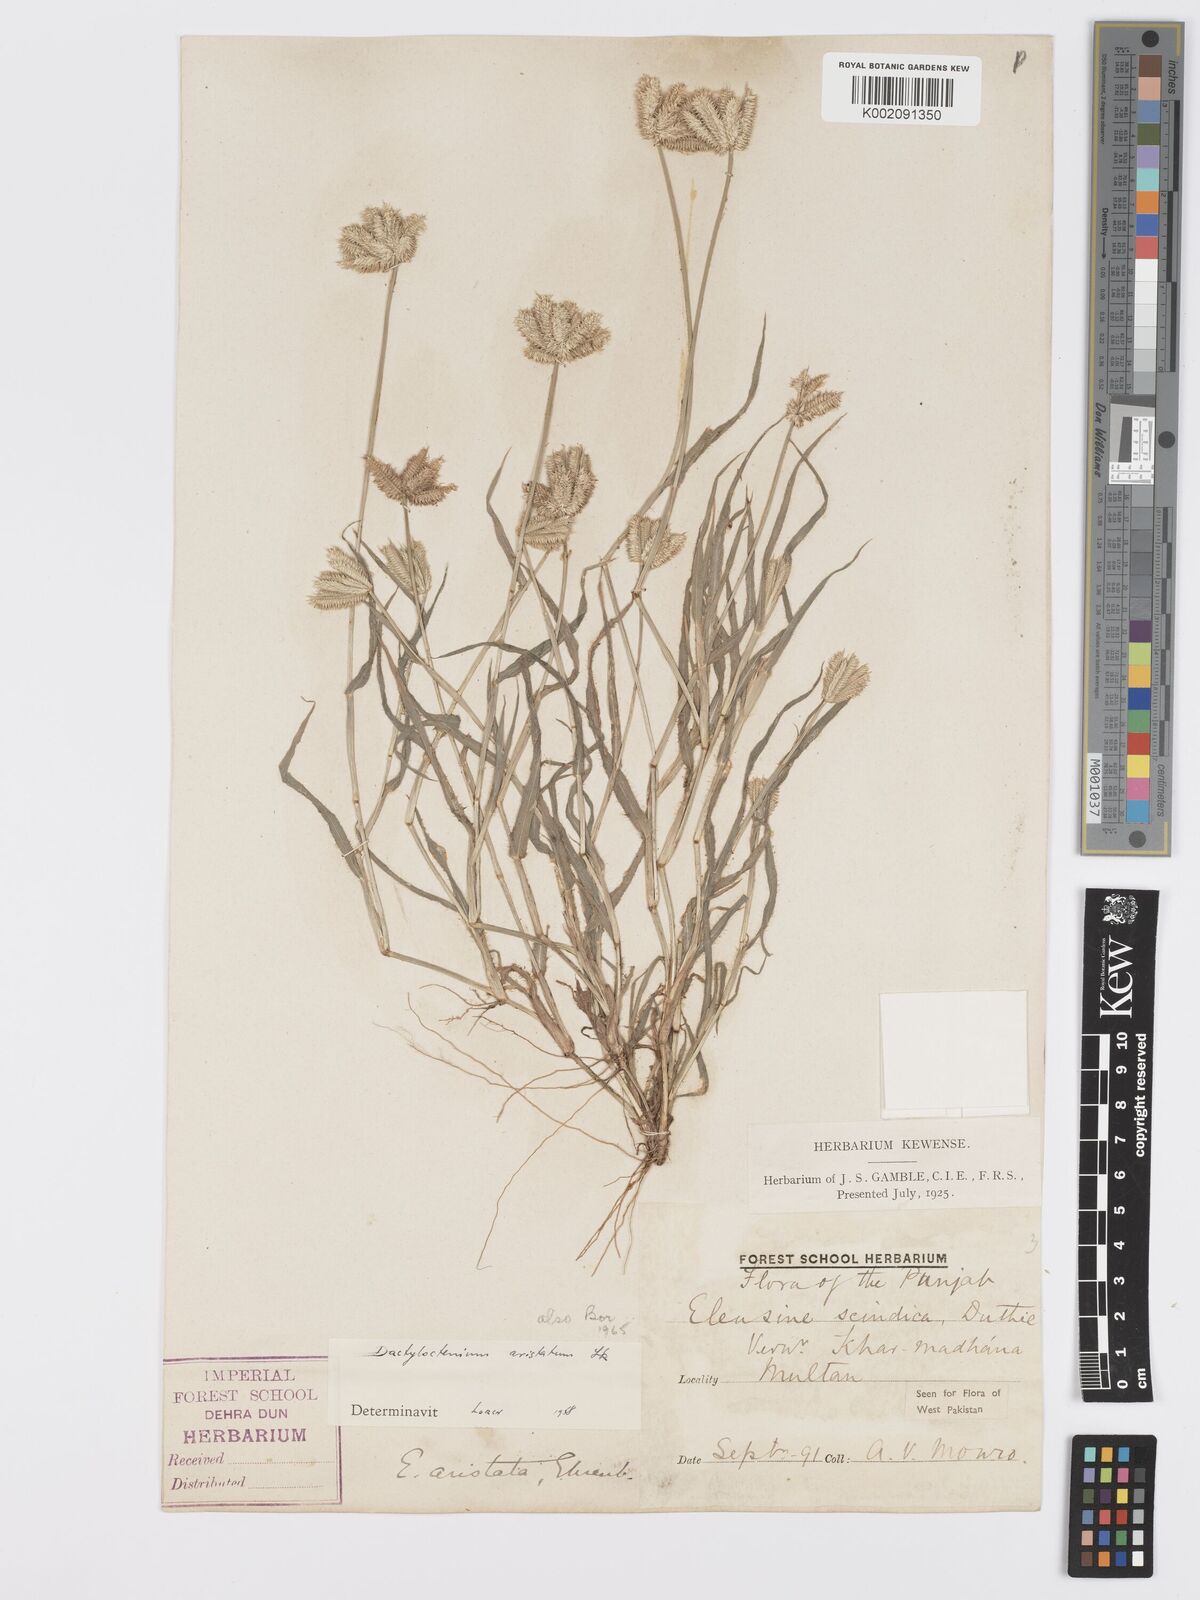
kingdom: Plantae
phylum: Tracheophyta
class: Liliopsida
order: Poales
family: Poaceae
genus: Dactyloctenium
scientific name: Dactyloctenium aristatum
